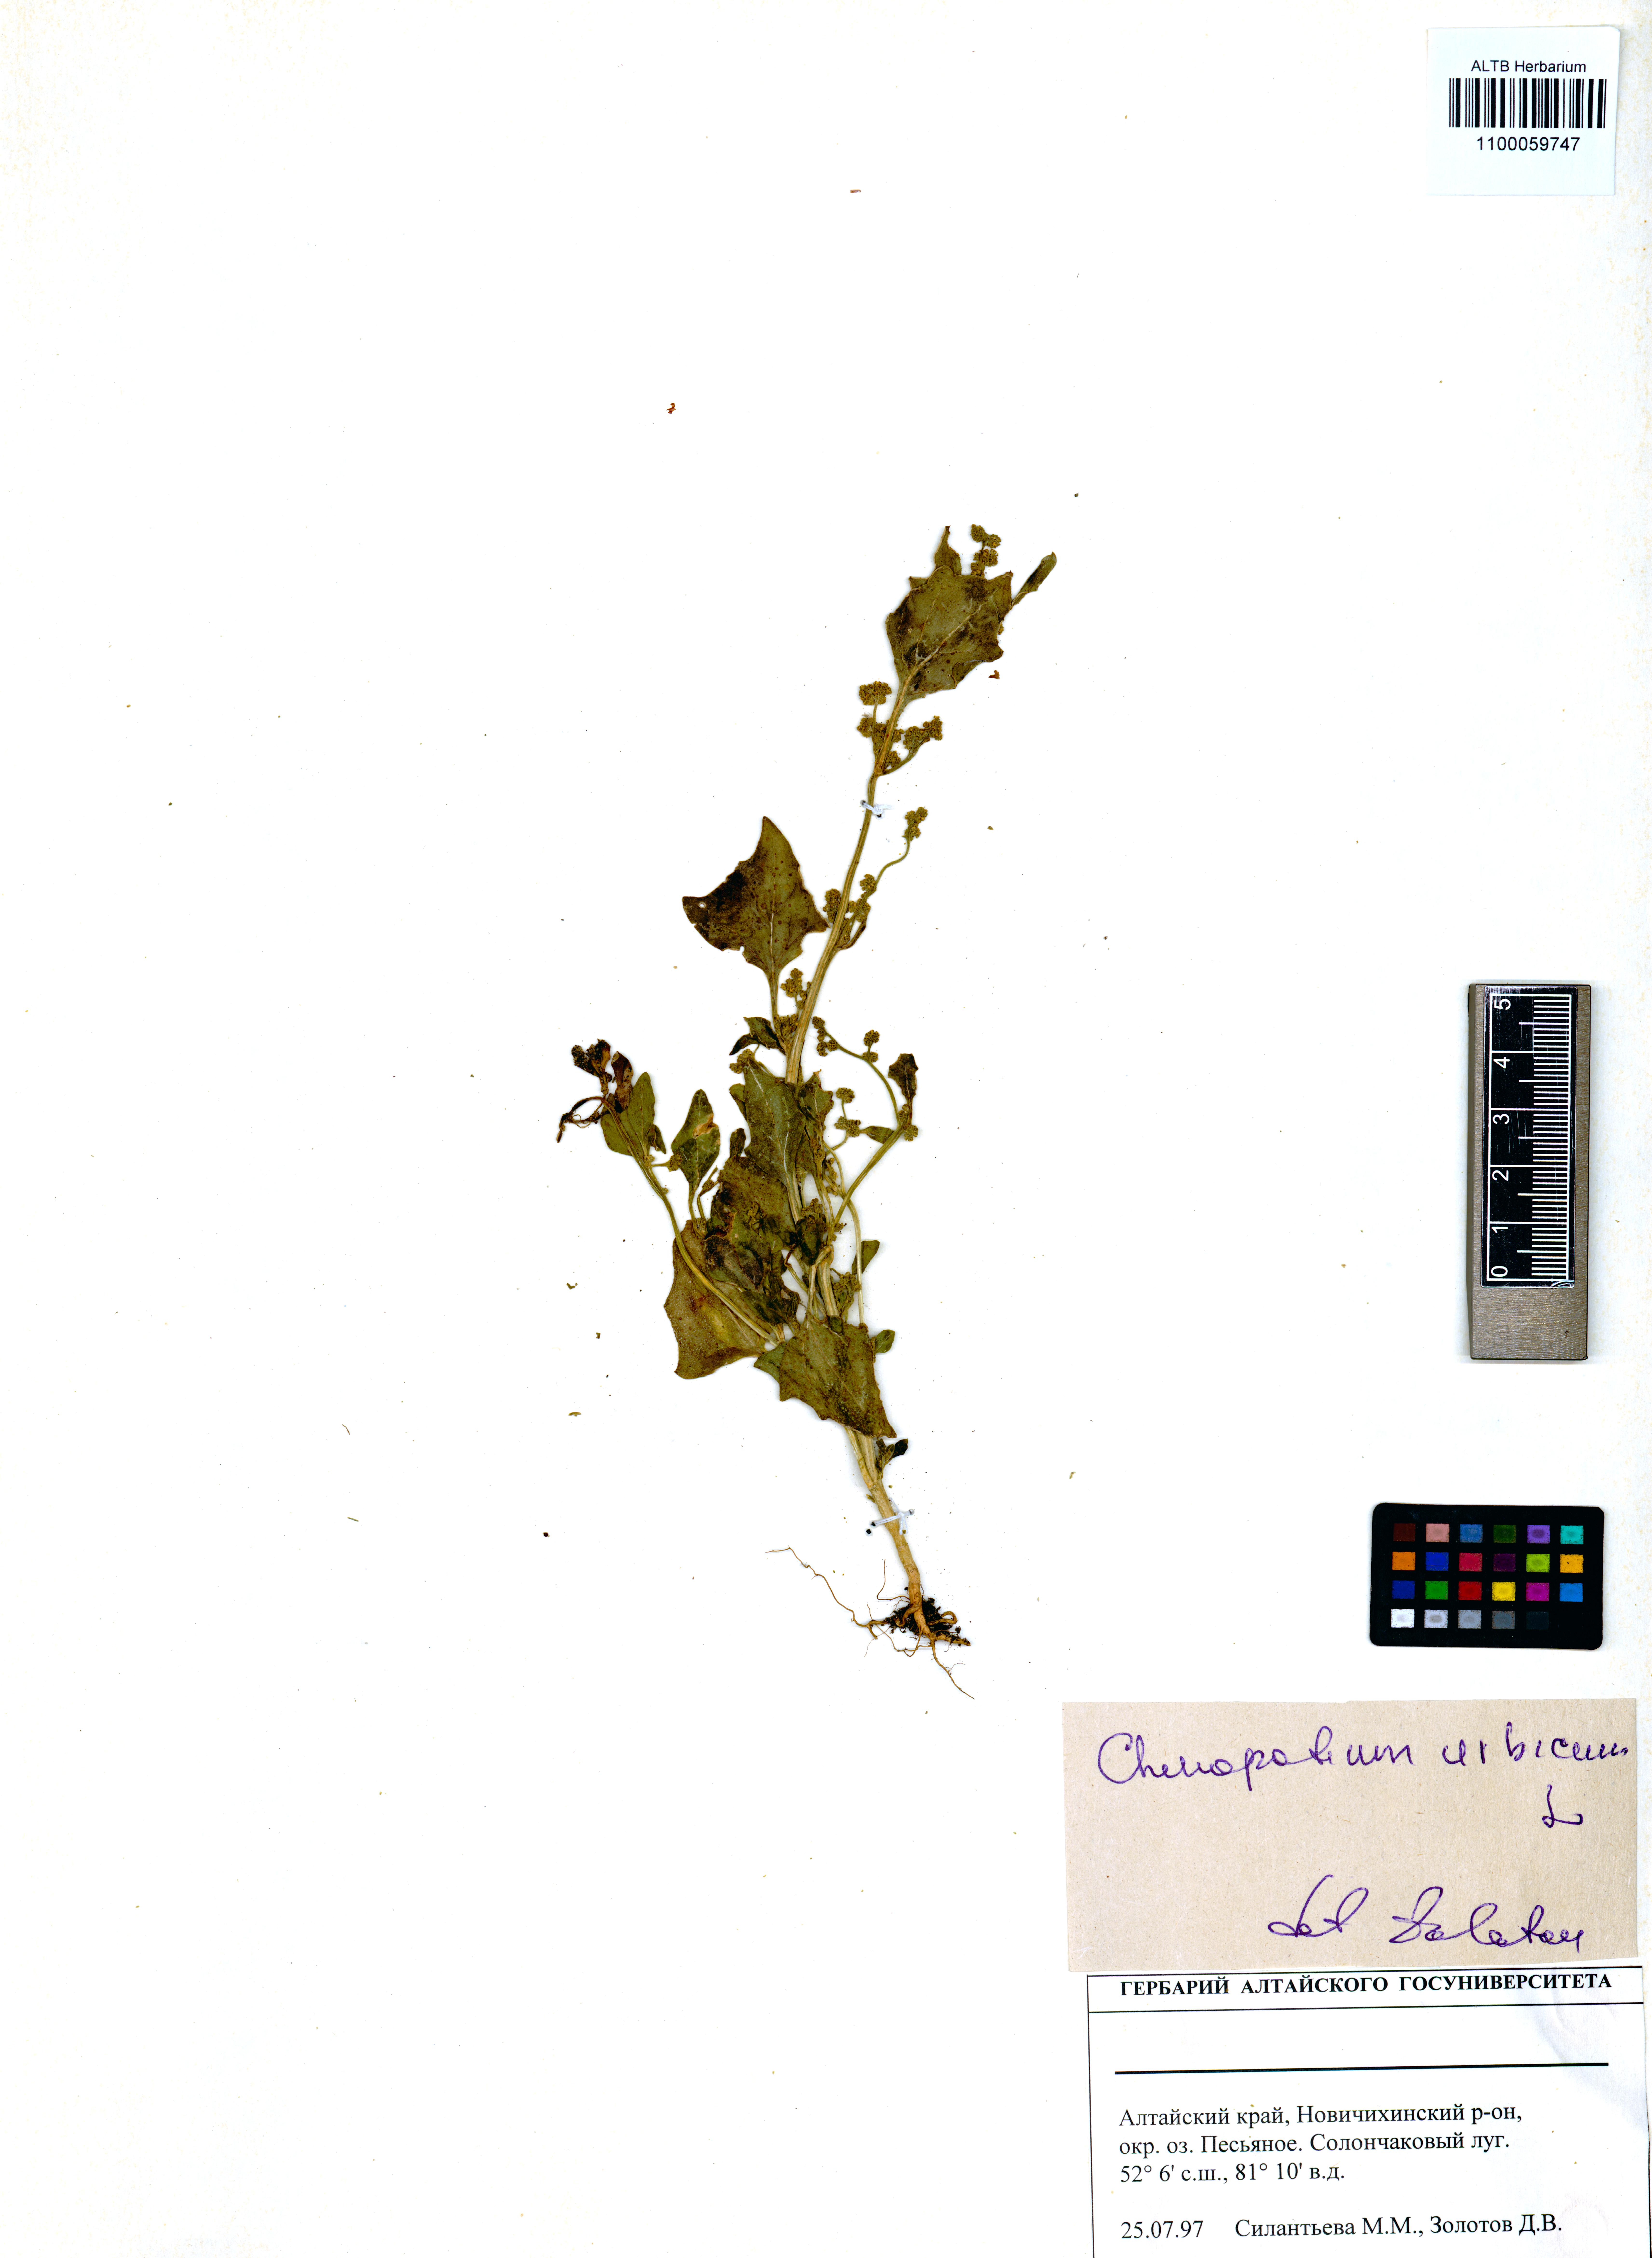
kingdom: Plantae
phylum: Tracheophyta
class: Magnoliopsida
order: Caryophyllales
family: Amaranthaceae
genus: Oxybasis
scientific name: Oxybasis urbica
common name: City goosefoot
